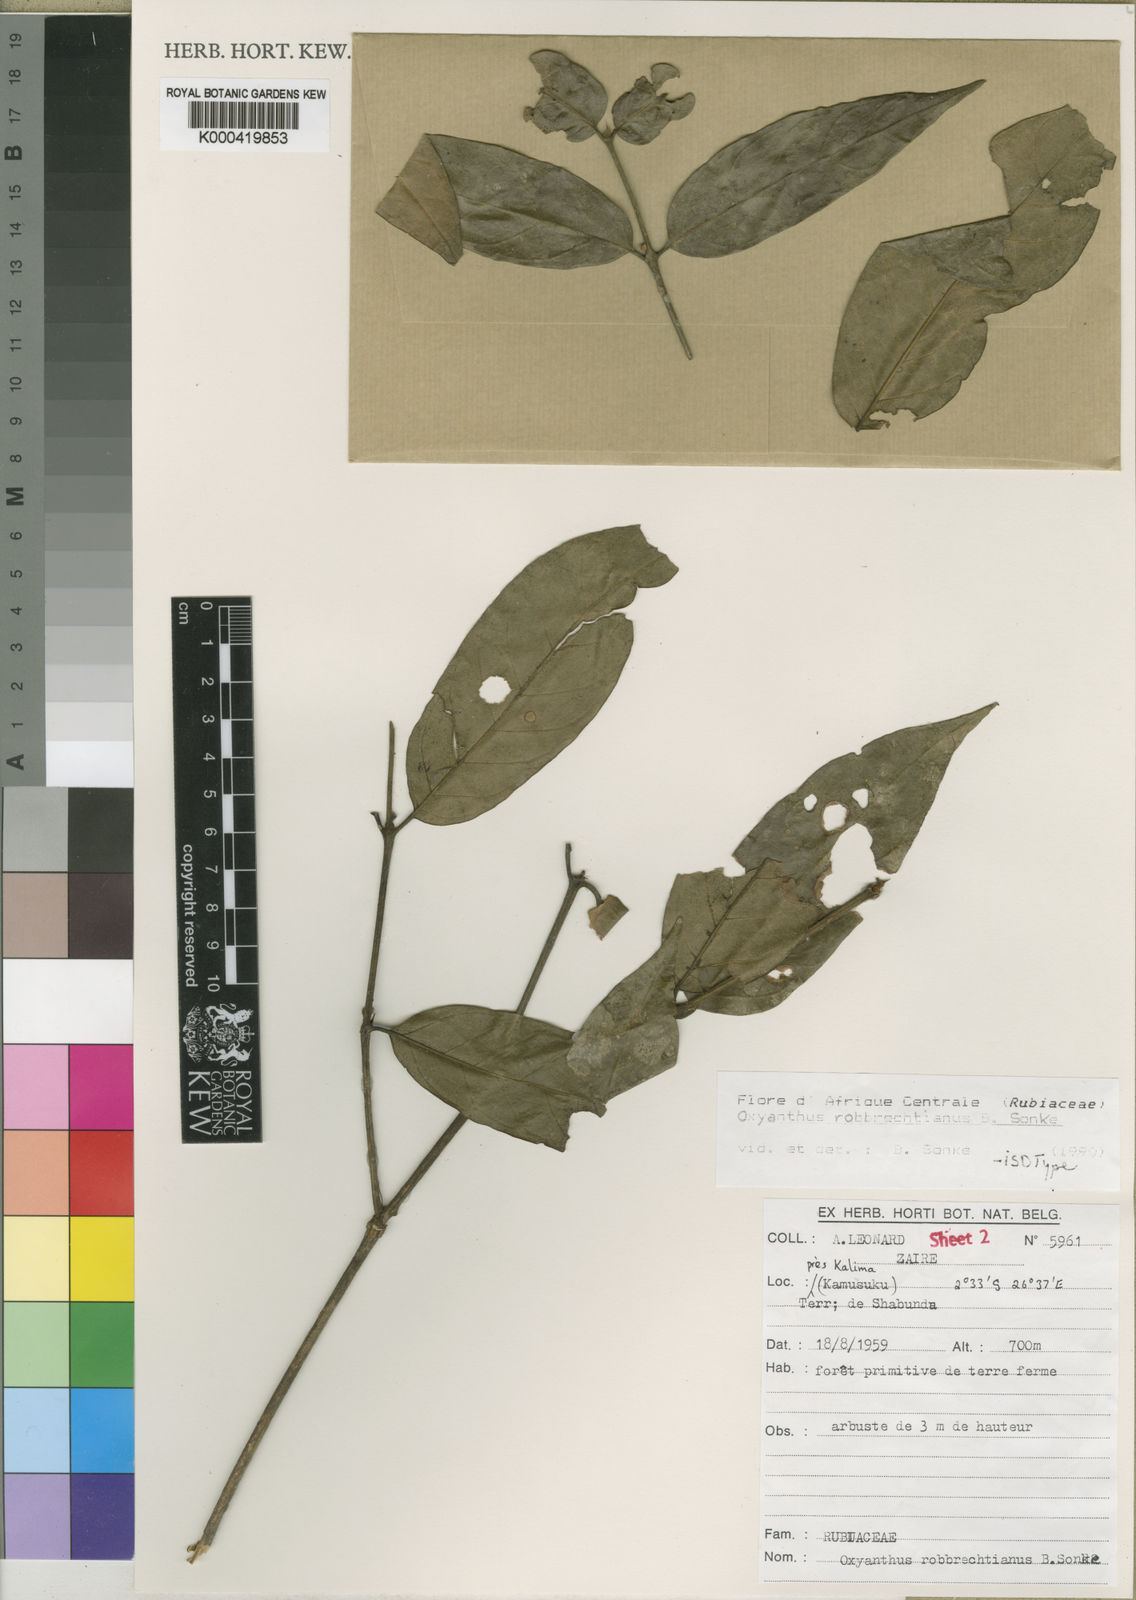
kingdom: Plantae
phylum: Tracheophyta
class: Magnoliopsida
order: Gentianales
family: Rubiaceae
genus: Oxyanthus
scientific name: Oxyanthus
